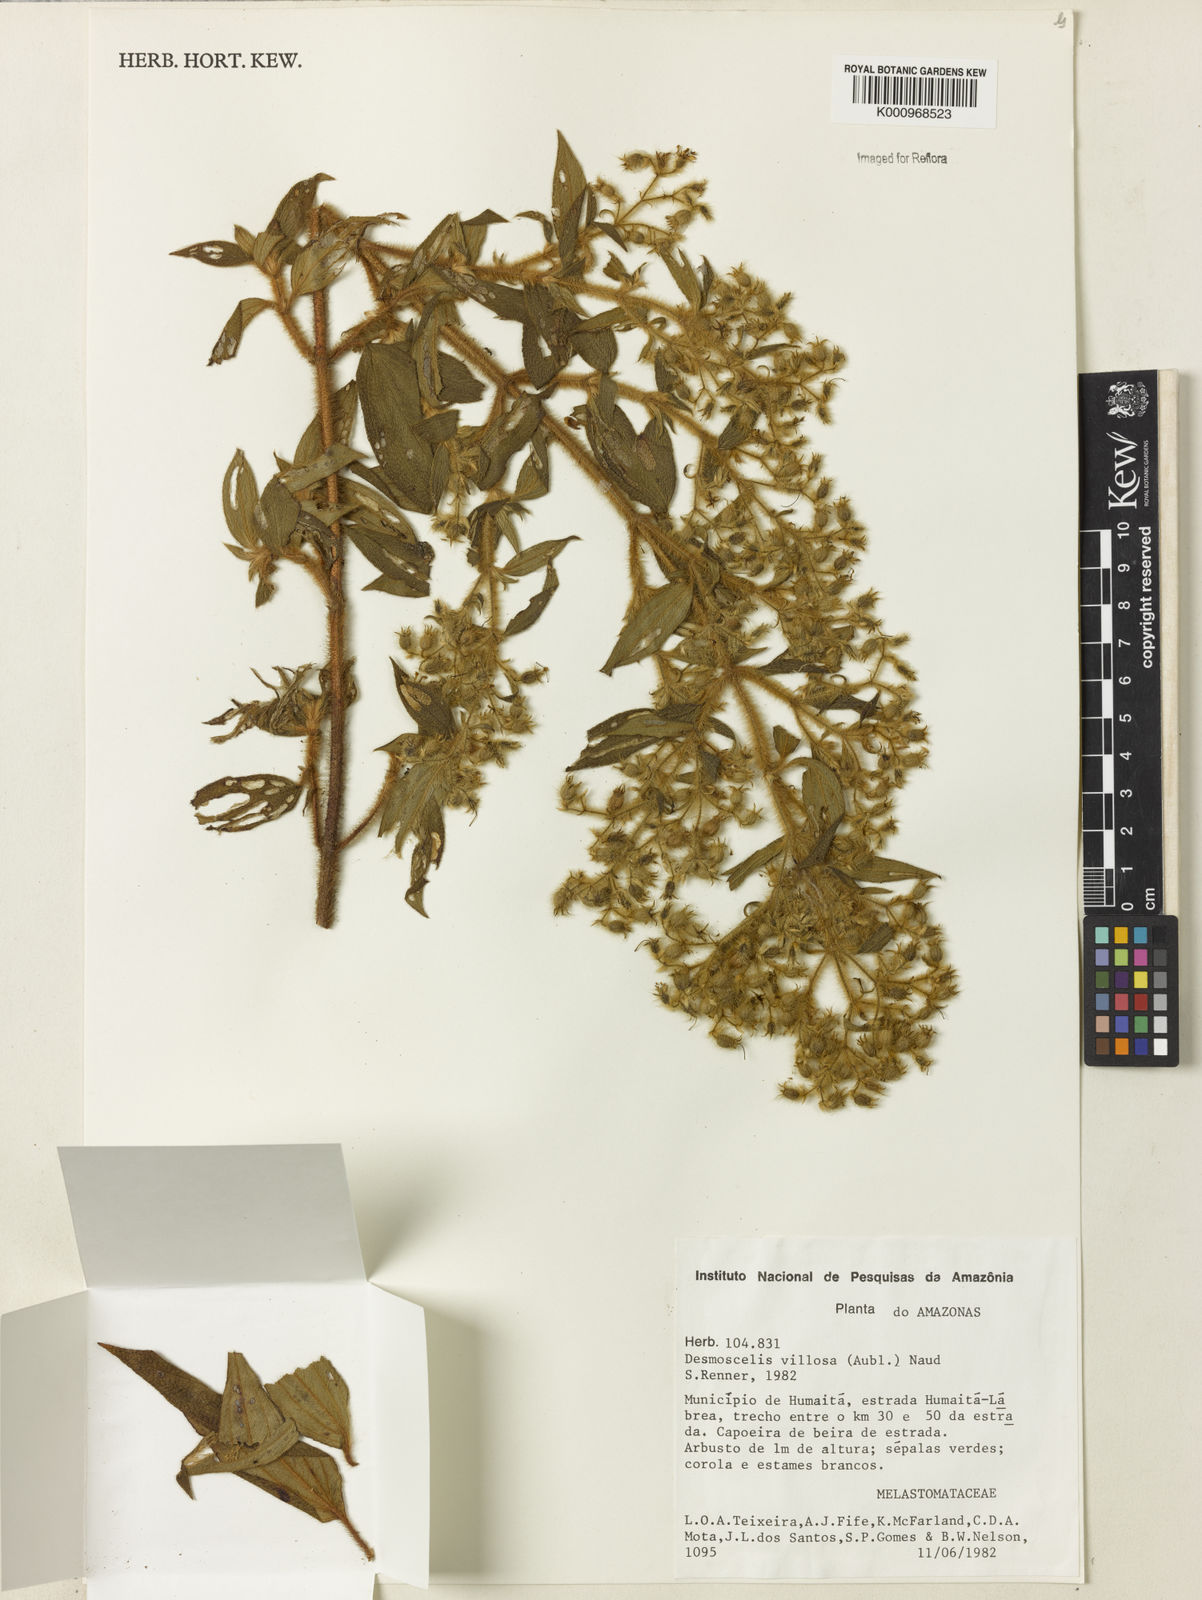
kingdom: Plantae
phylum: Tracheophyta
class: Magnoliopsida
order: Myrtales
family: Melastomataceae
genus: Desmoscelis
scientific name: Desmoscelis villosa
